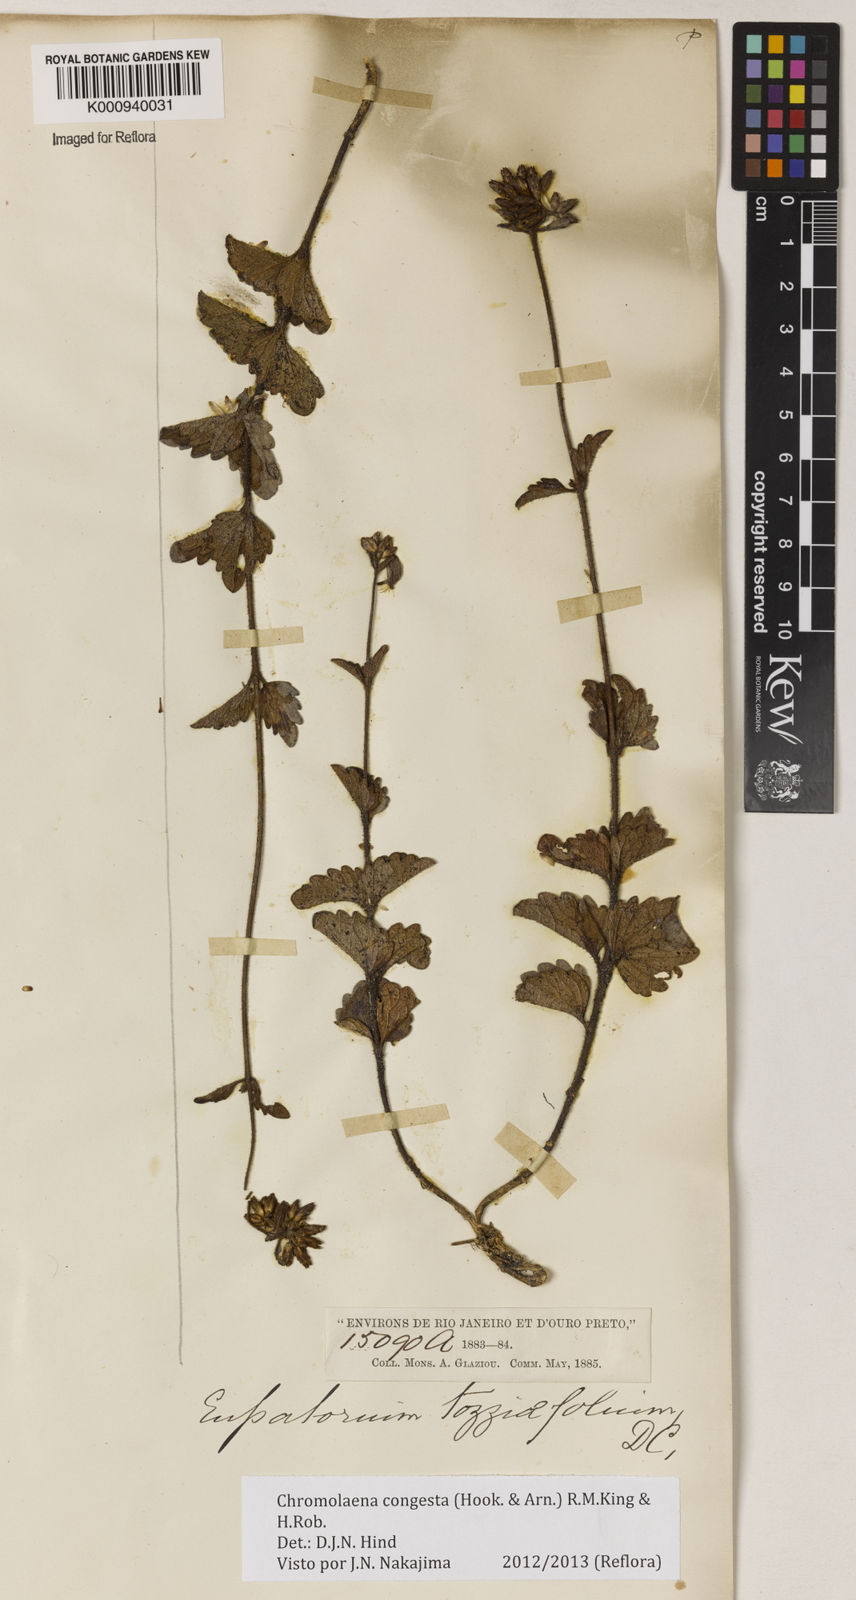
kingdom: Plantae
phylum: Tracheophyta
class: Magnoliopsida
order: Asterales
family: Asteraceae
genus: Chromolaena
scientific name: Chromolaena congesta
